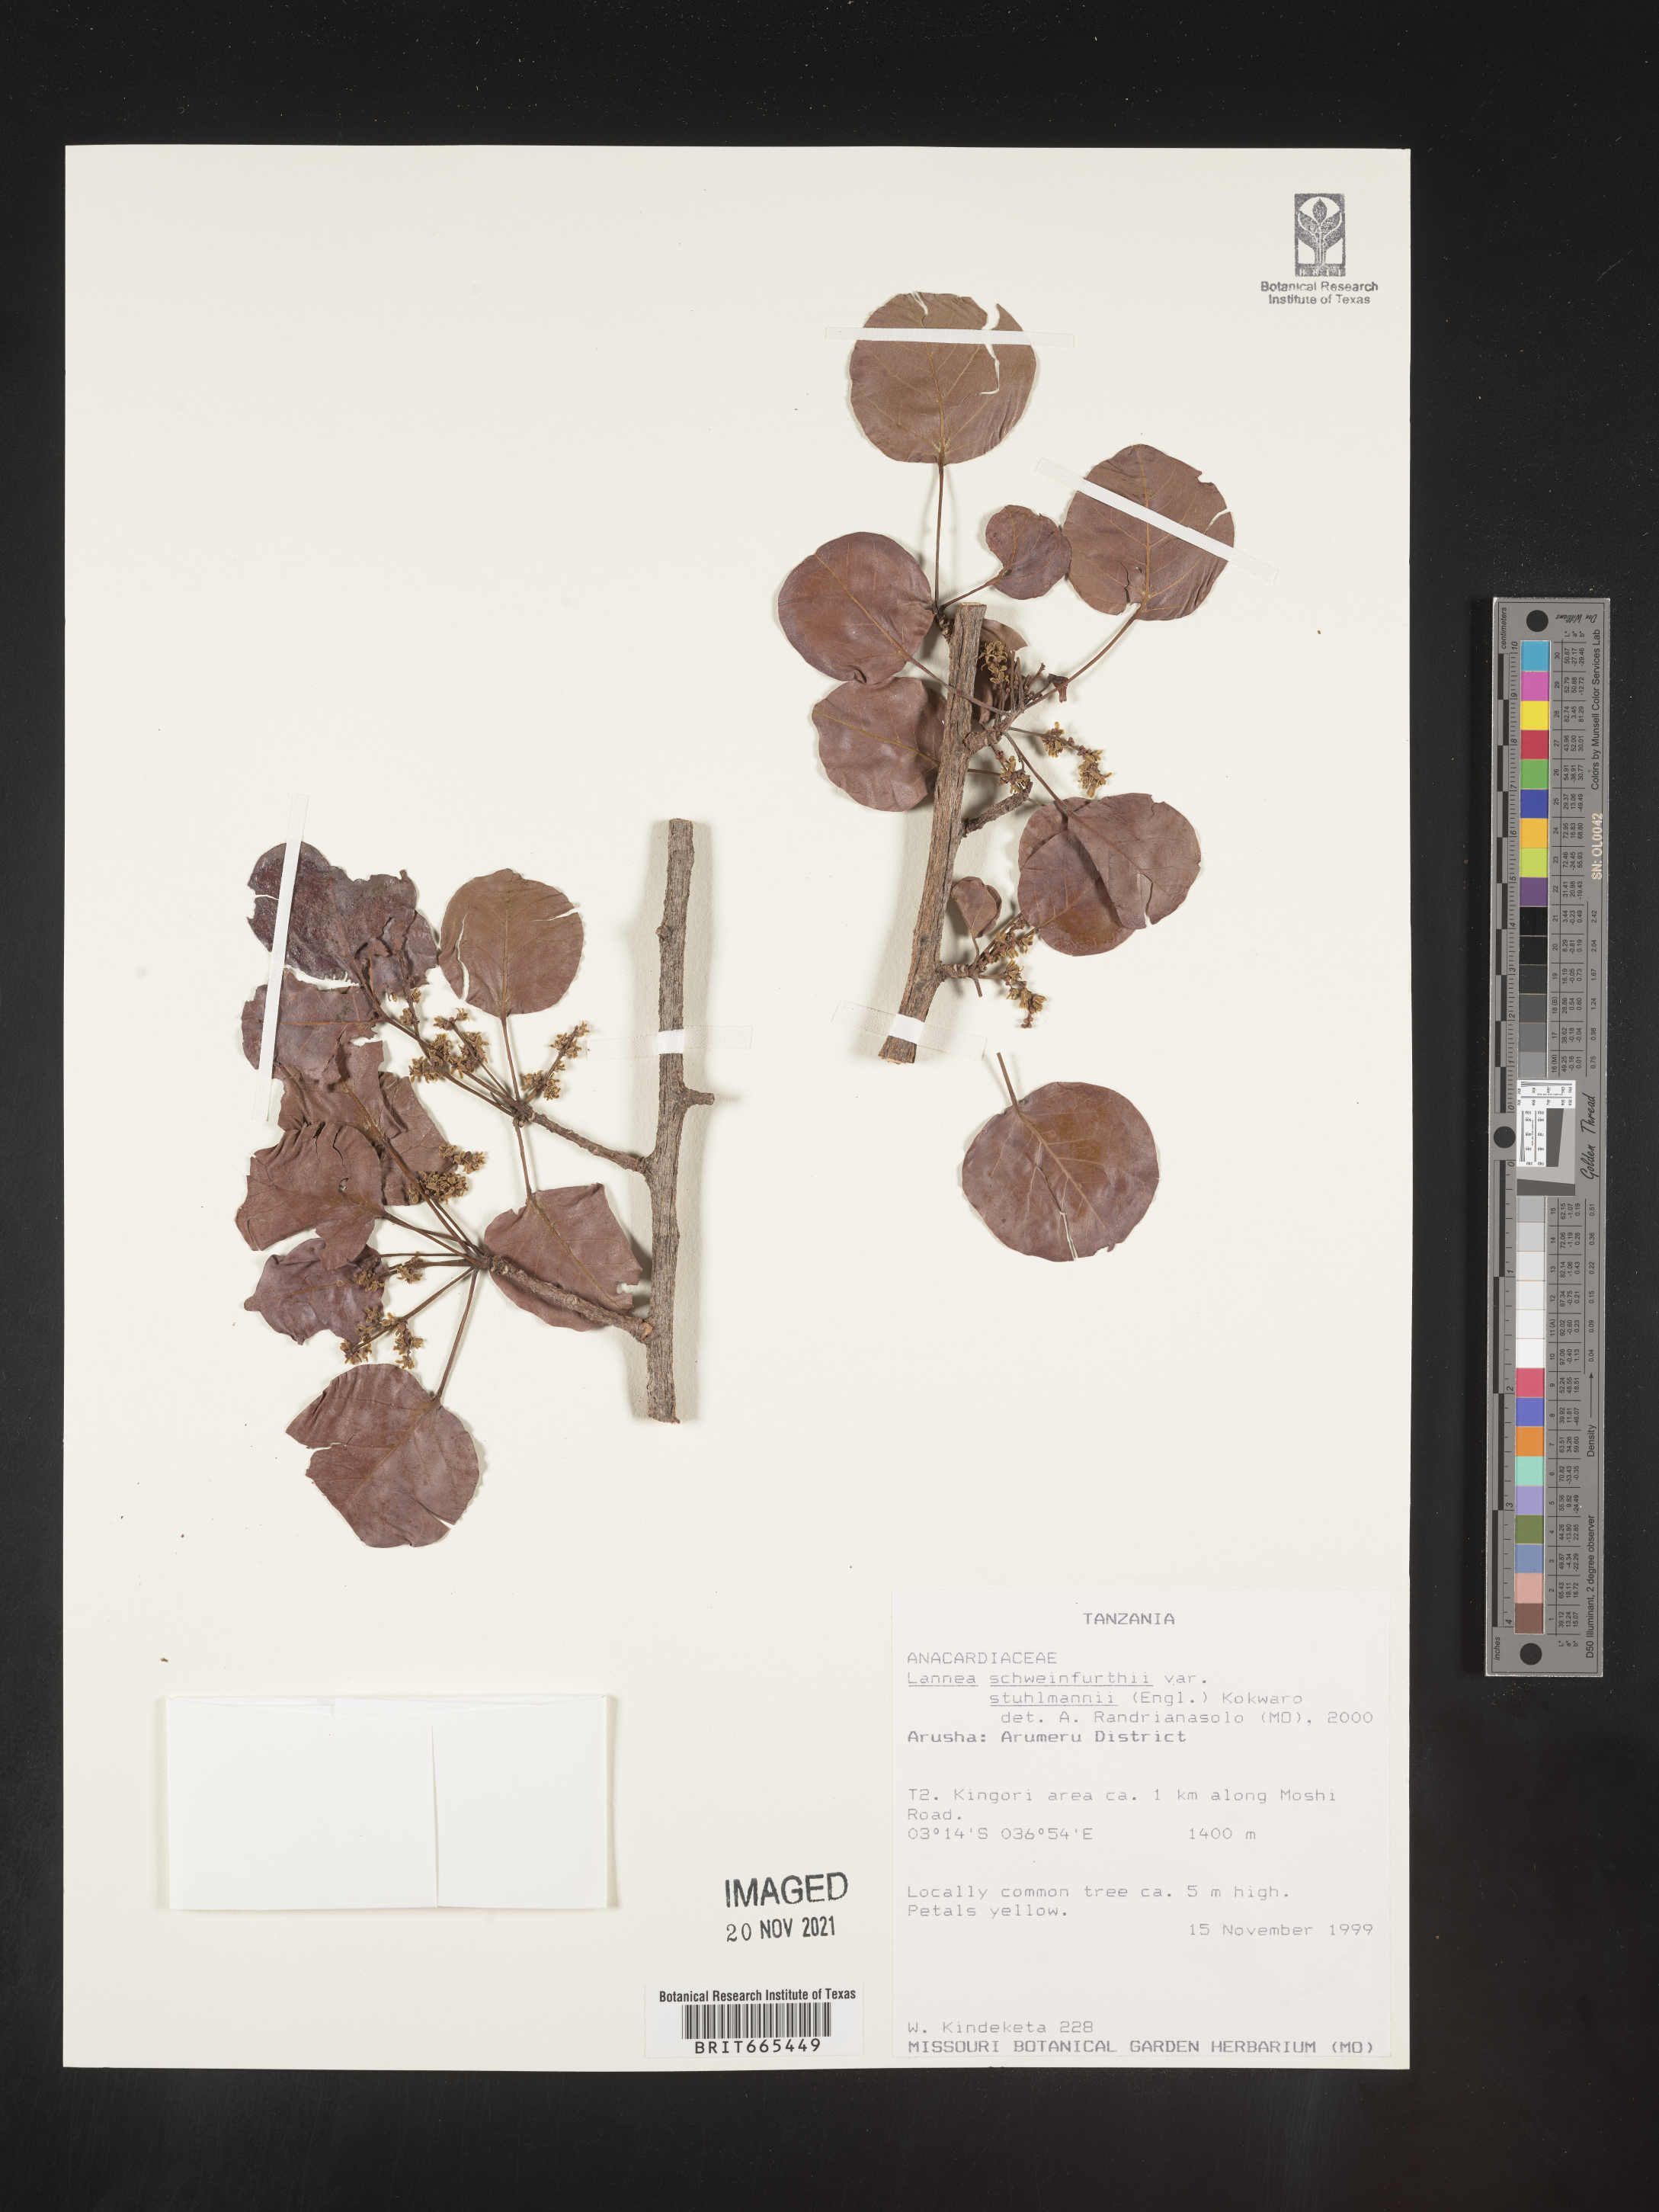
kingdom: Plantae
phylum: Tracheophyta
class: Magnoliopsida
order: Sapindales
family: Anacardiaceae
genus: Lannea
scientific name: Lannea schweinfurthii
